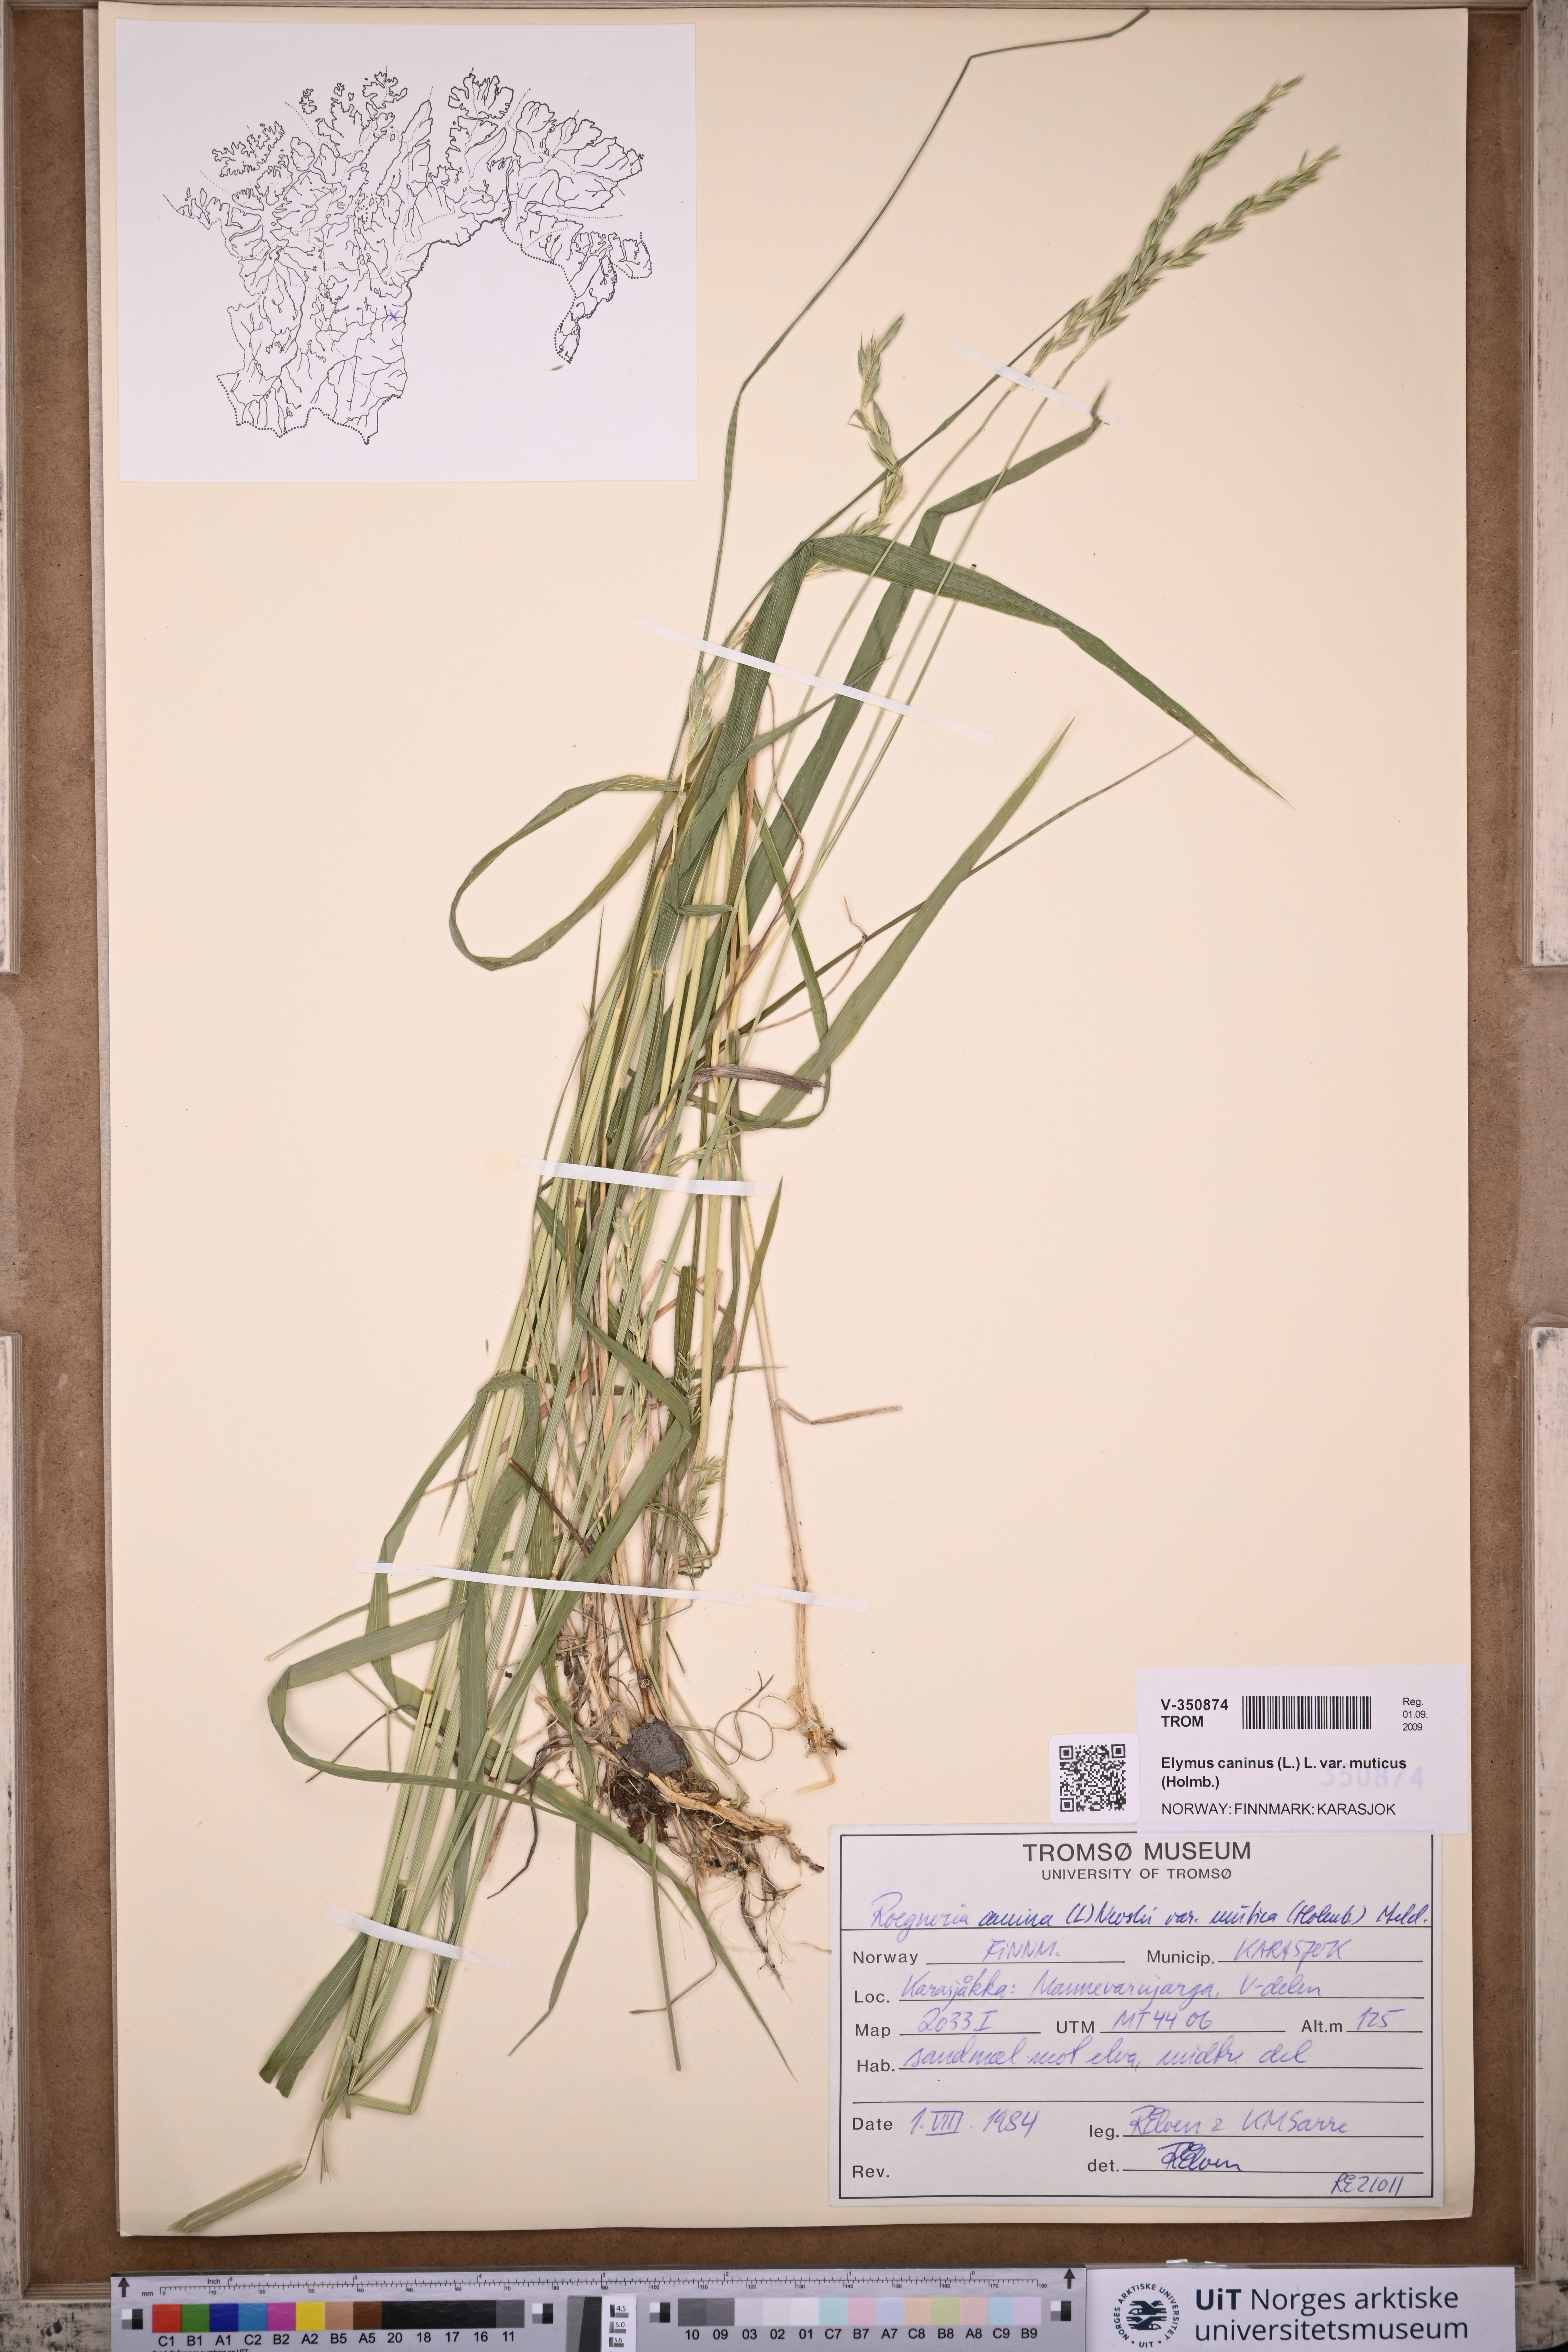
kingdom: Plantae
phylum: Tracheophyta
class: Liliopsida
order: Poales
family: Poaceae
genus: Elymus
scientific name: Elymus caninus
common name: Bearded couch
